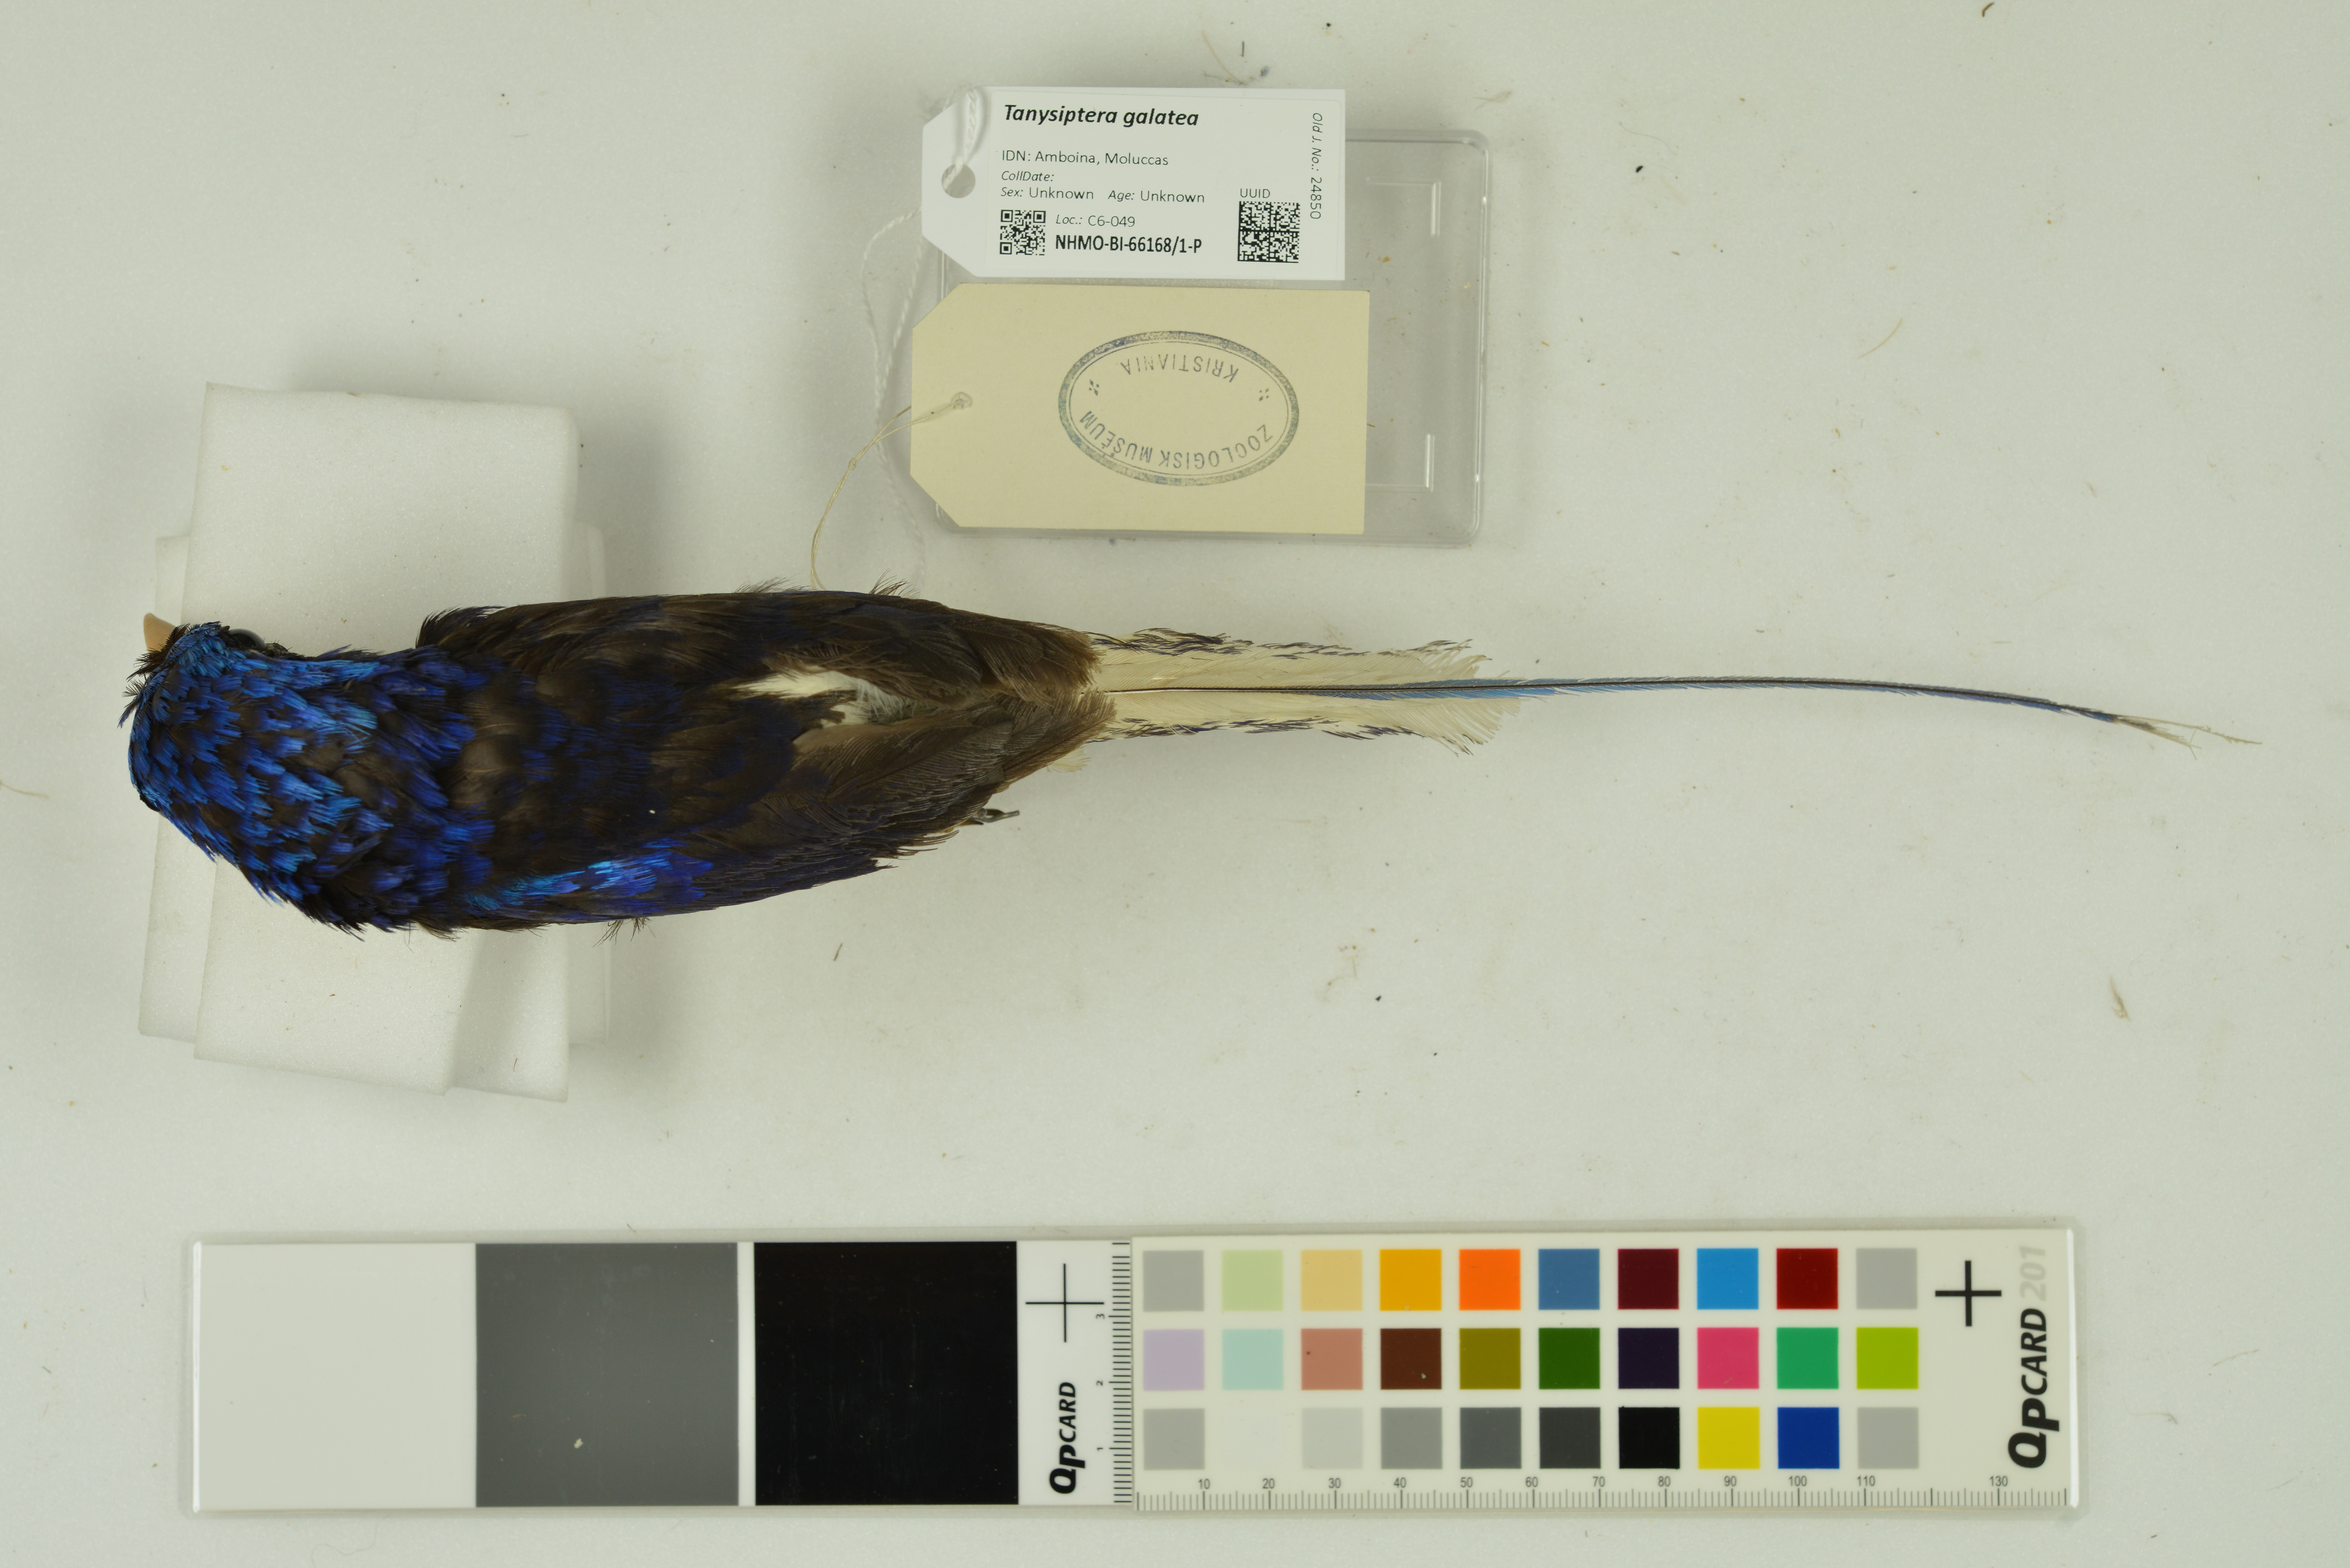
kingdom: Animalia
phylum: Chordata
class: Aves
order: Coraciiformes
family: Alcedinidae
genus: Tanysiptera
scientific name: Tanysiptera galatea
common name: Common paradise-kingfisher
